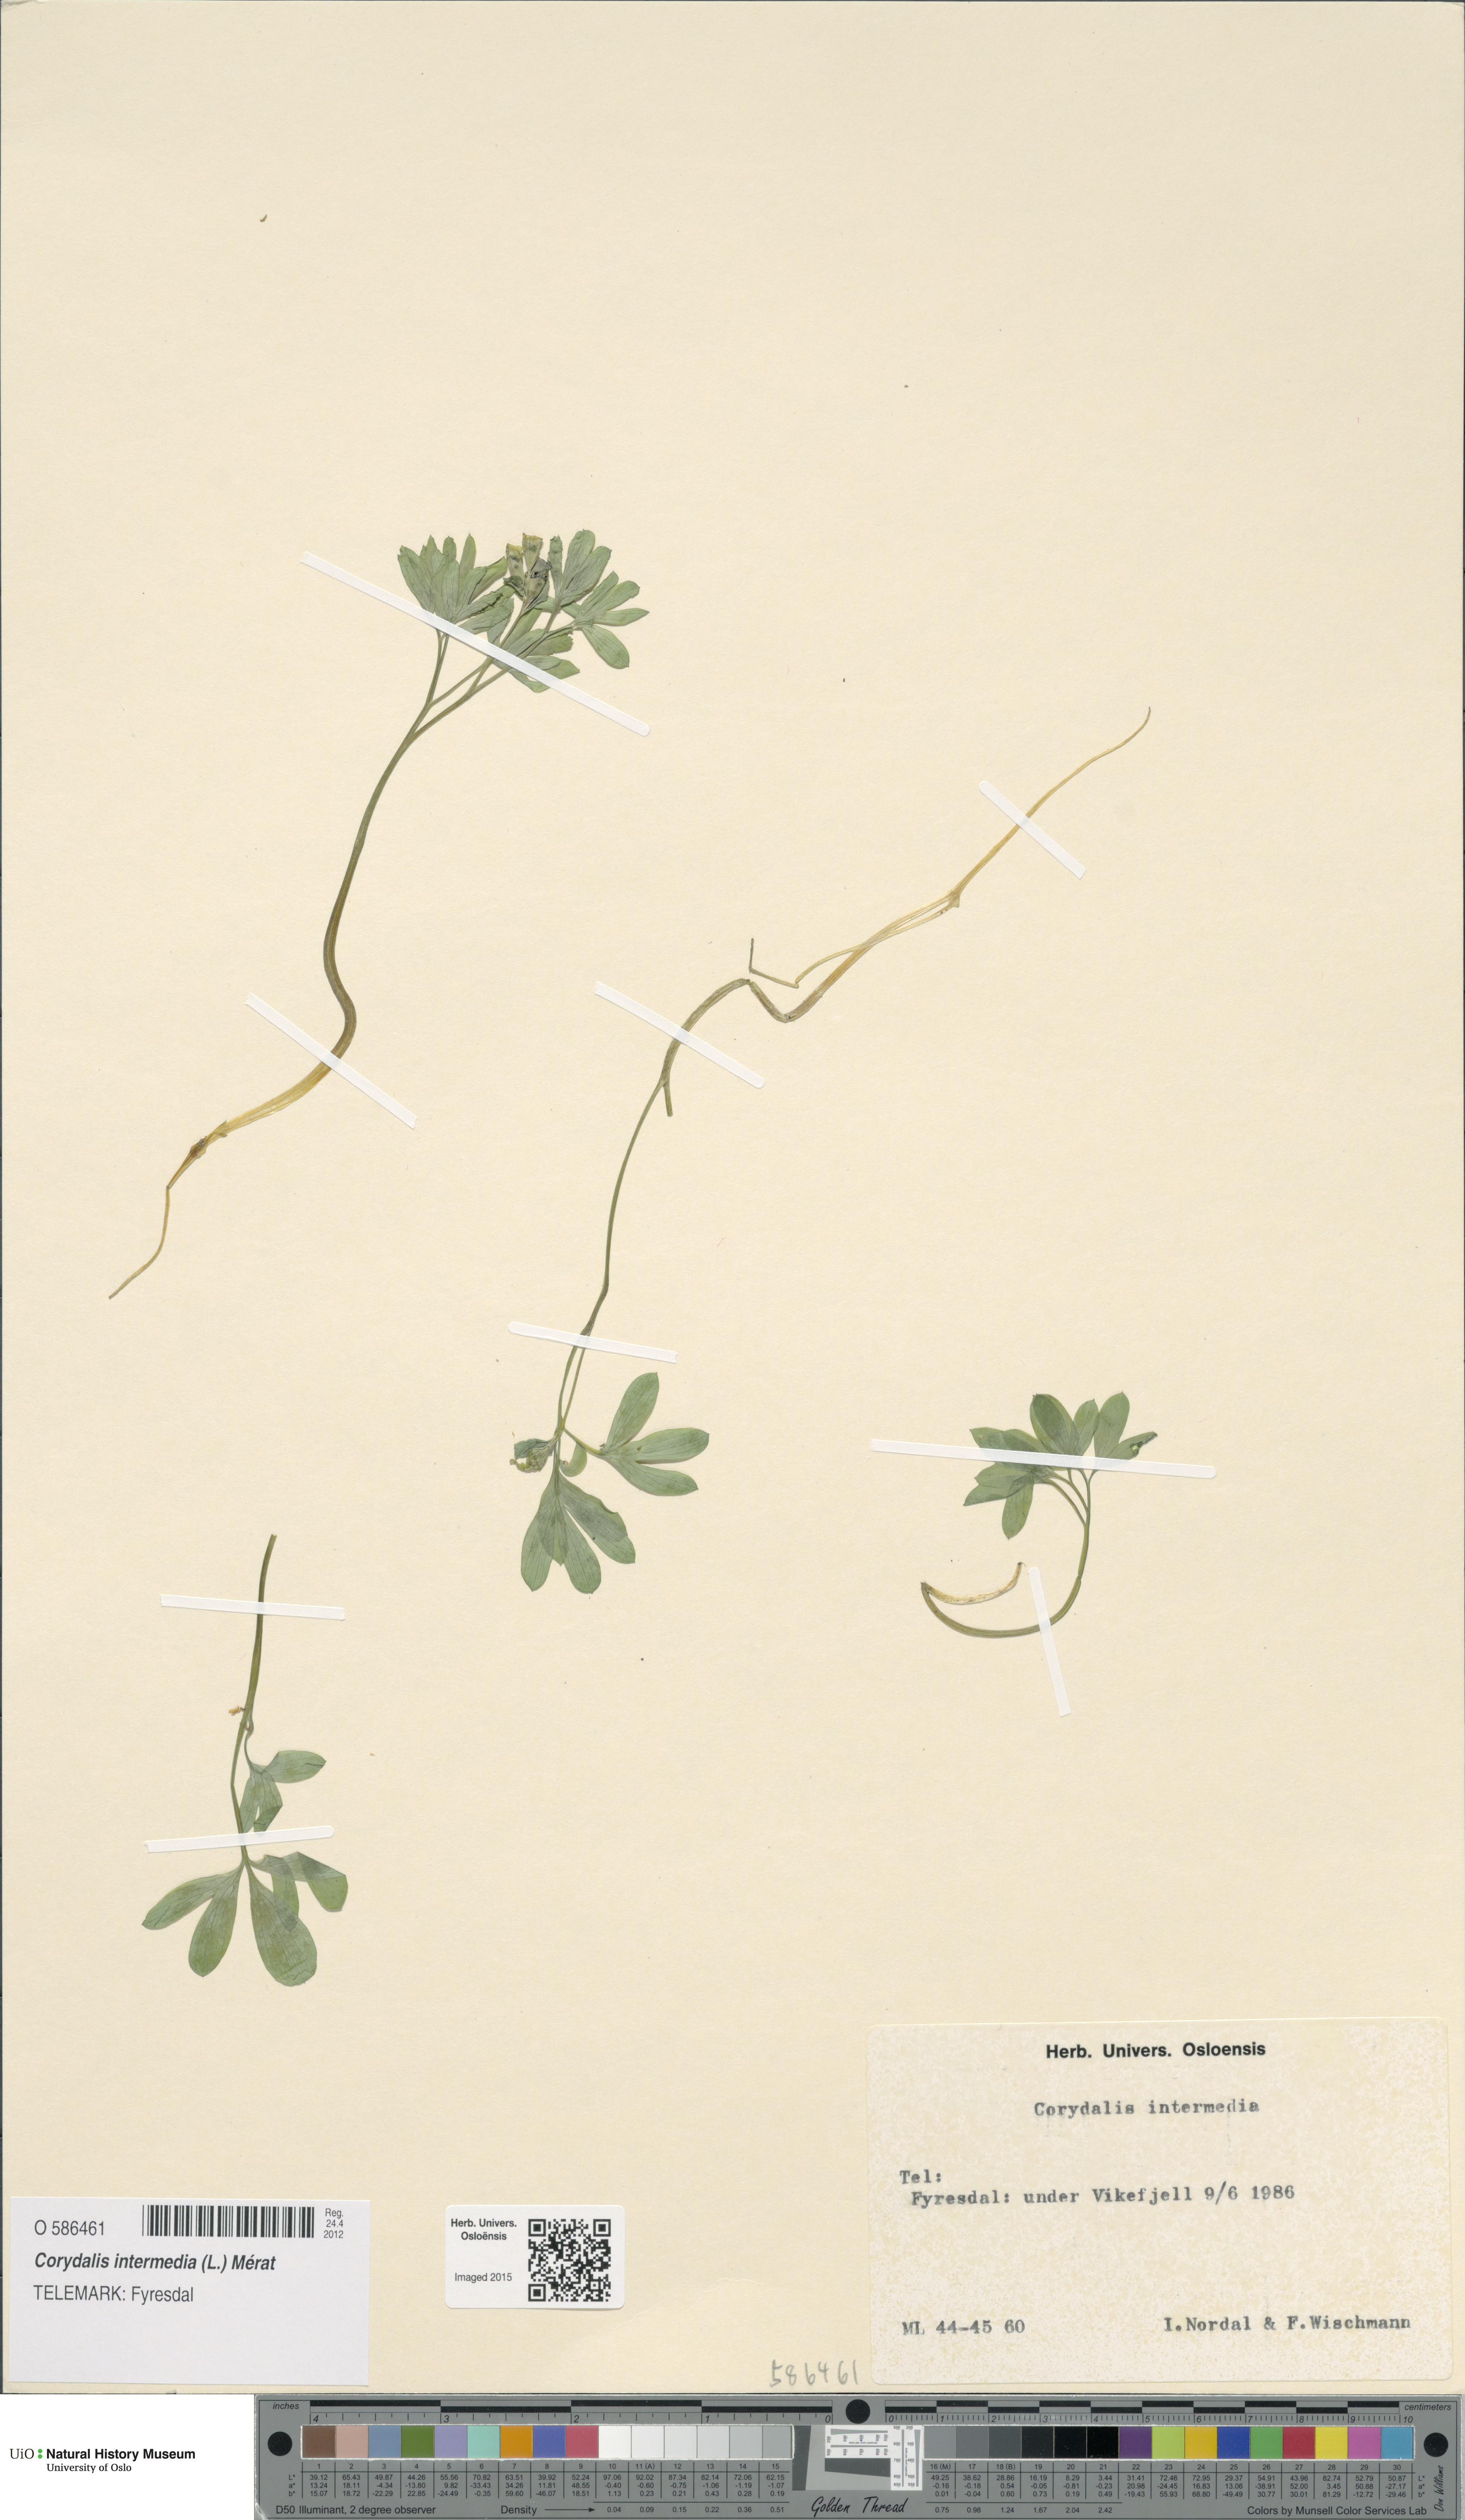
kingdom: Plantae
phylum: Tracheophyta
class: Magnoliopsida
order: Ranunculales
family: Papaveraceae
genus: Corydalis
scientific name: Corydalis intermedia
